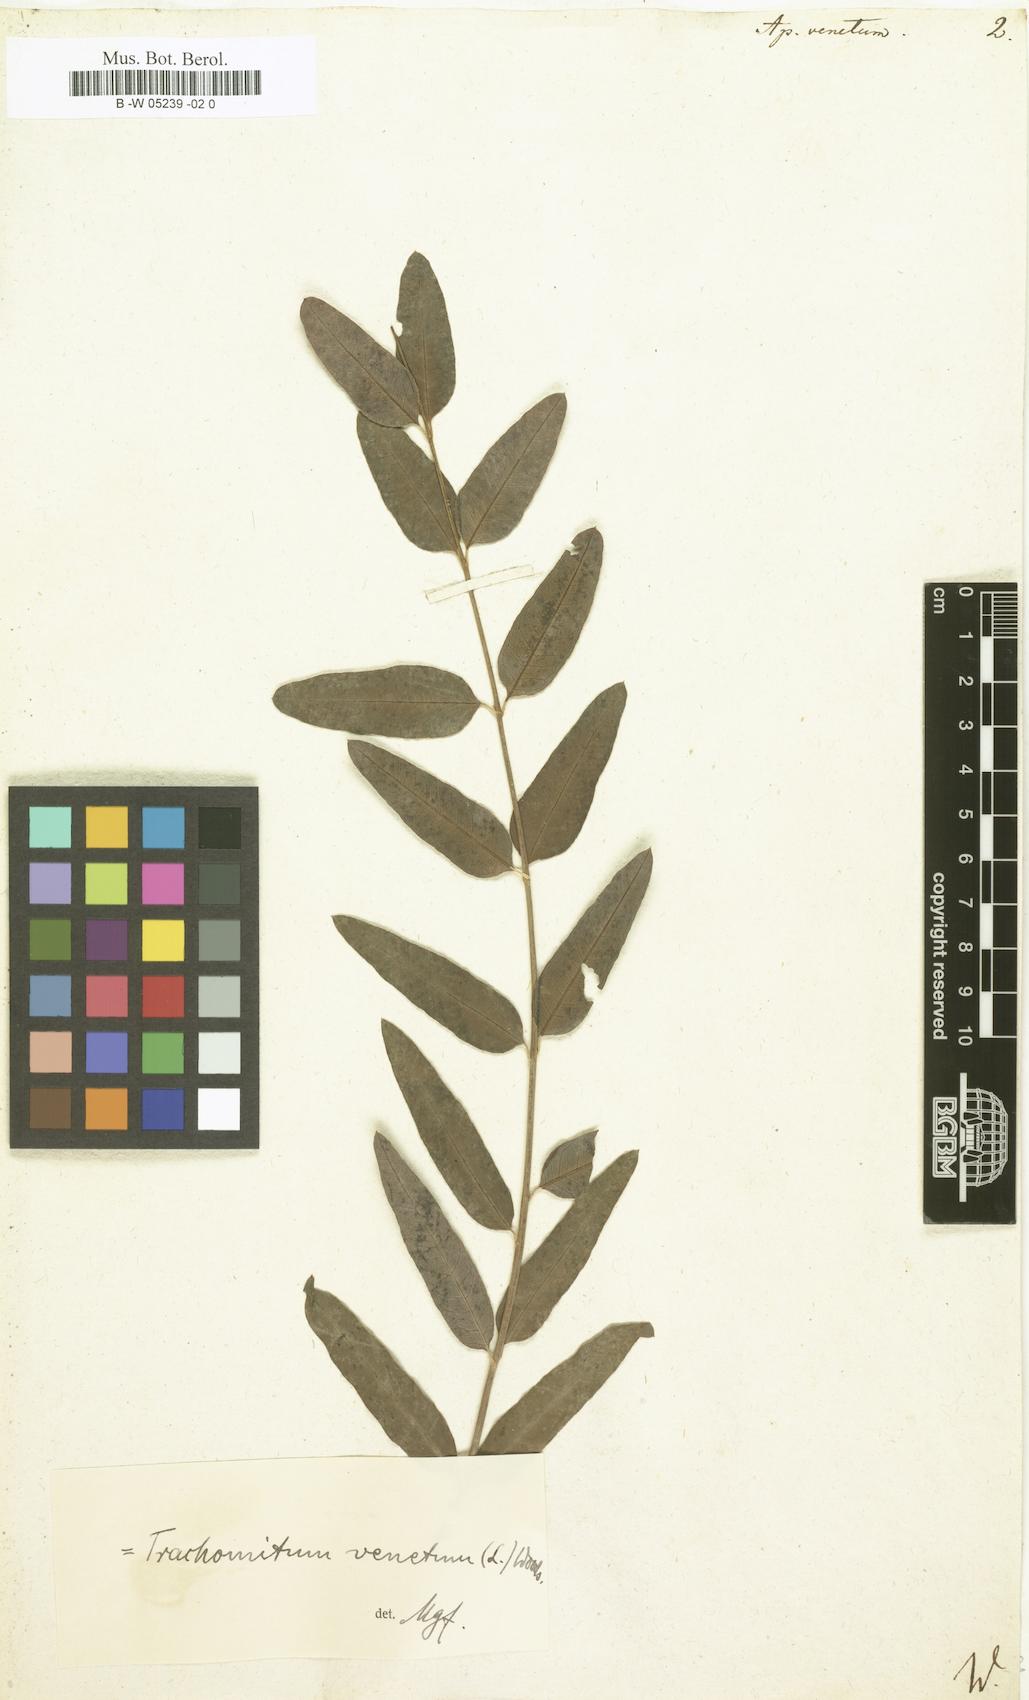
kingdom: Plantae
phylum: Tracheophyta
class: Magnoliopsida
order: Gentianales
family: Apocynaceae
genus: Poacynum
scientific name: Poacynum venetum
